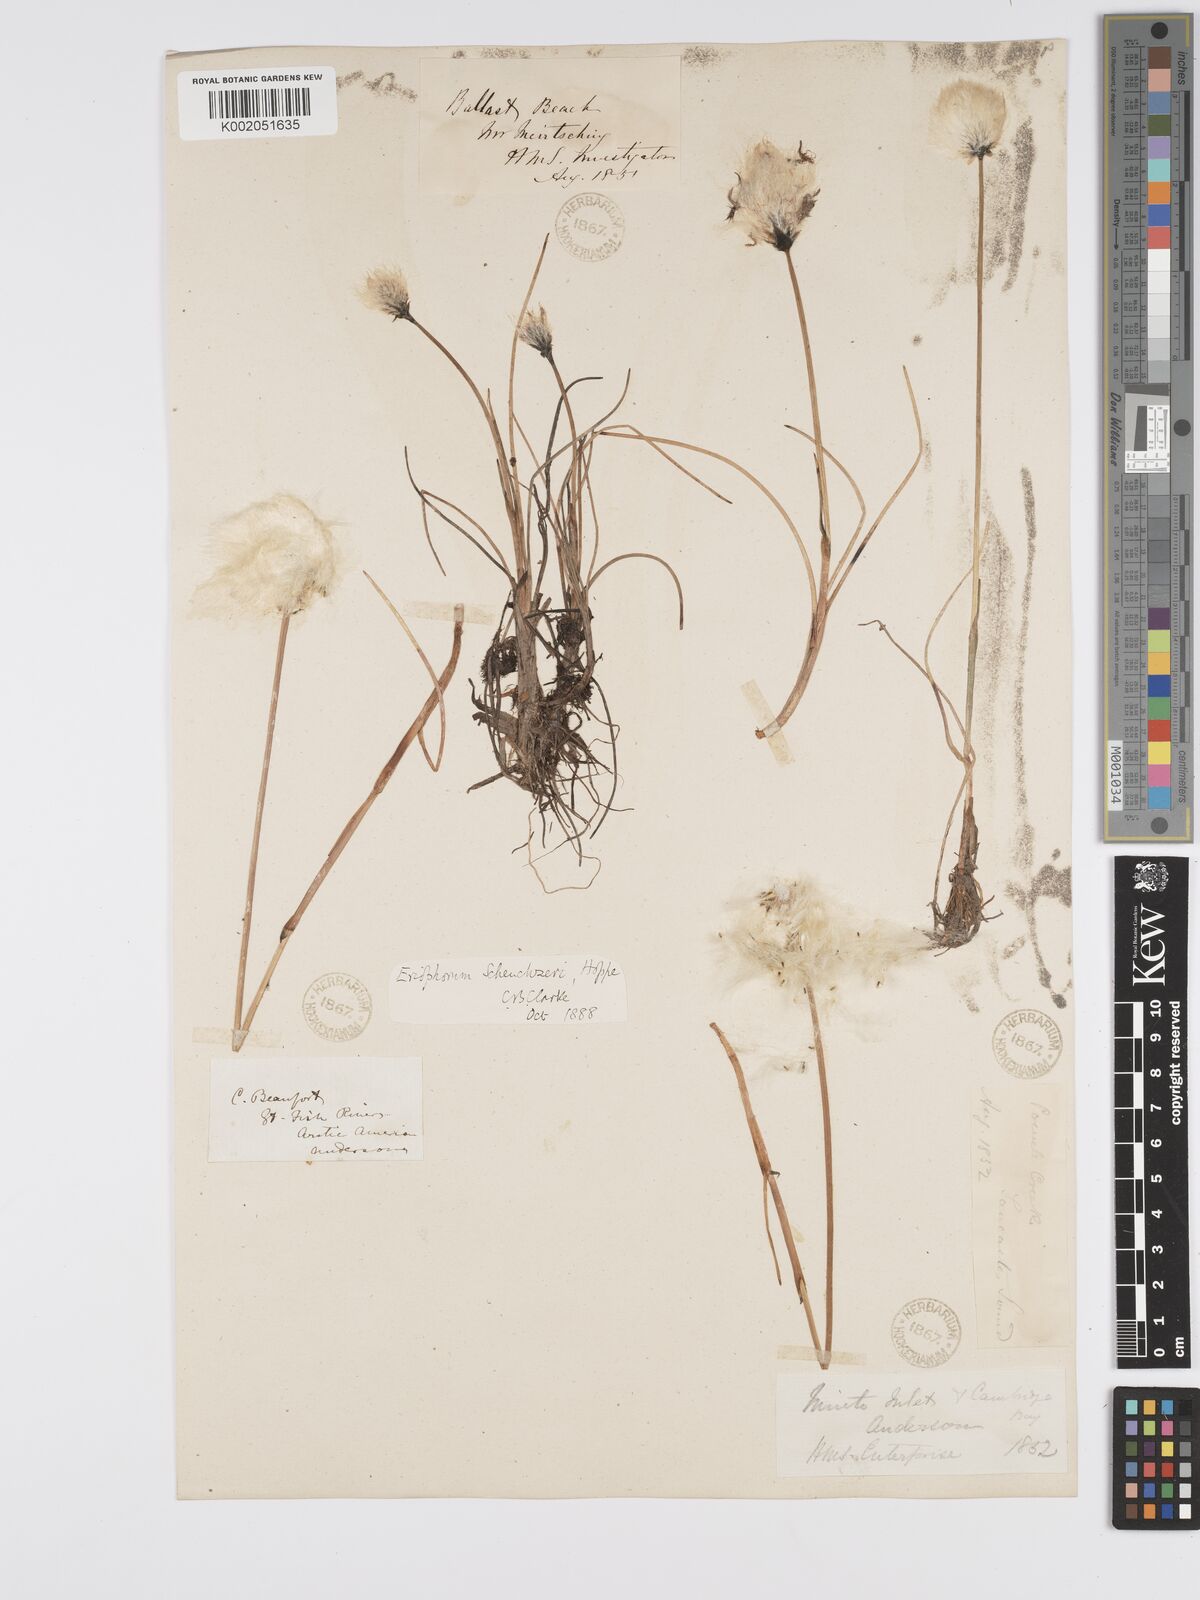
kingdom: Plantae
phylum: Tracheophyta
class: Liliopsida
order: Poales
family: Cyperaceae
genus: Eriophorum
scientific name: Eriophorum scheuchzeri
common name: Scheuchzer's cottongrass
